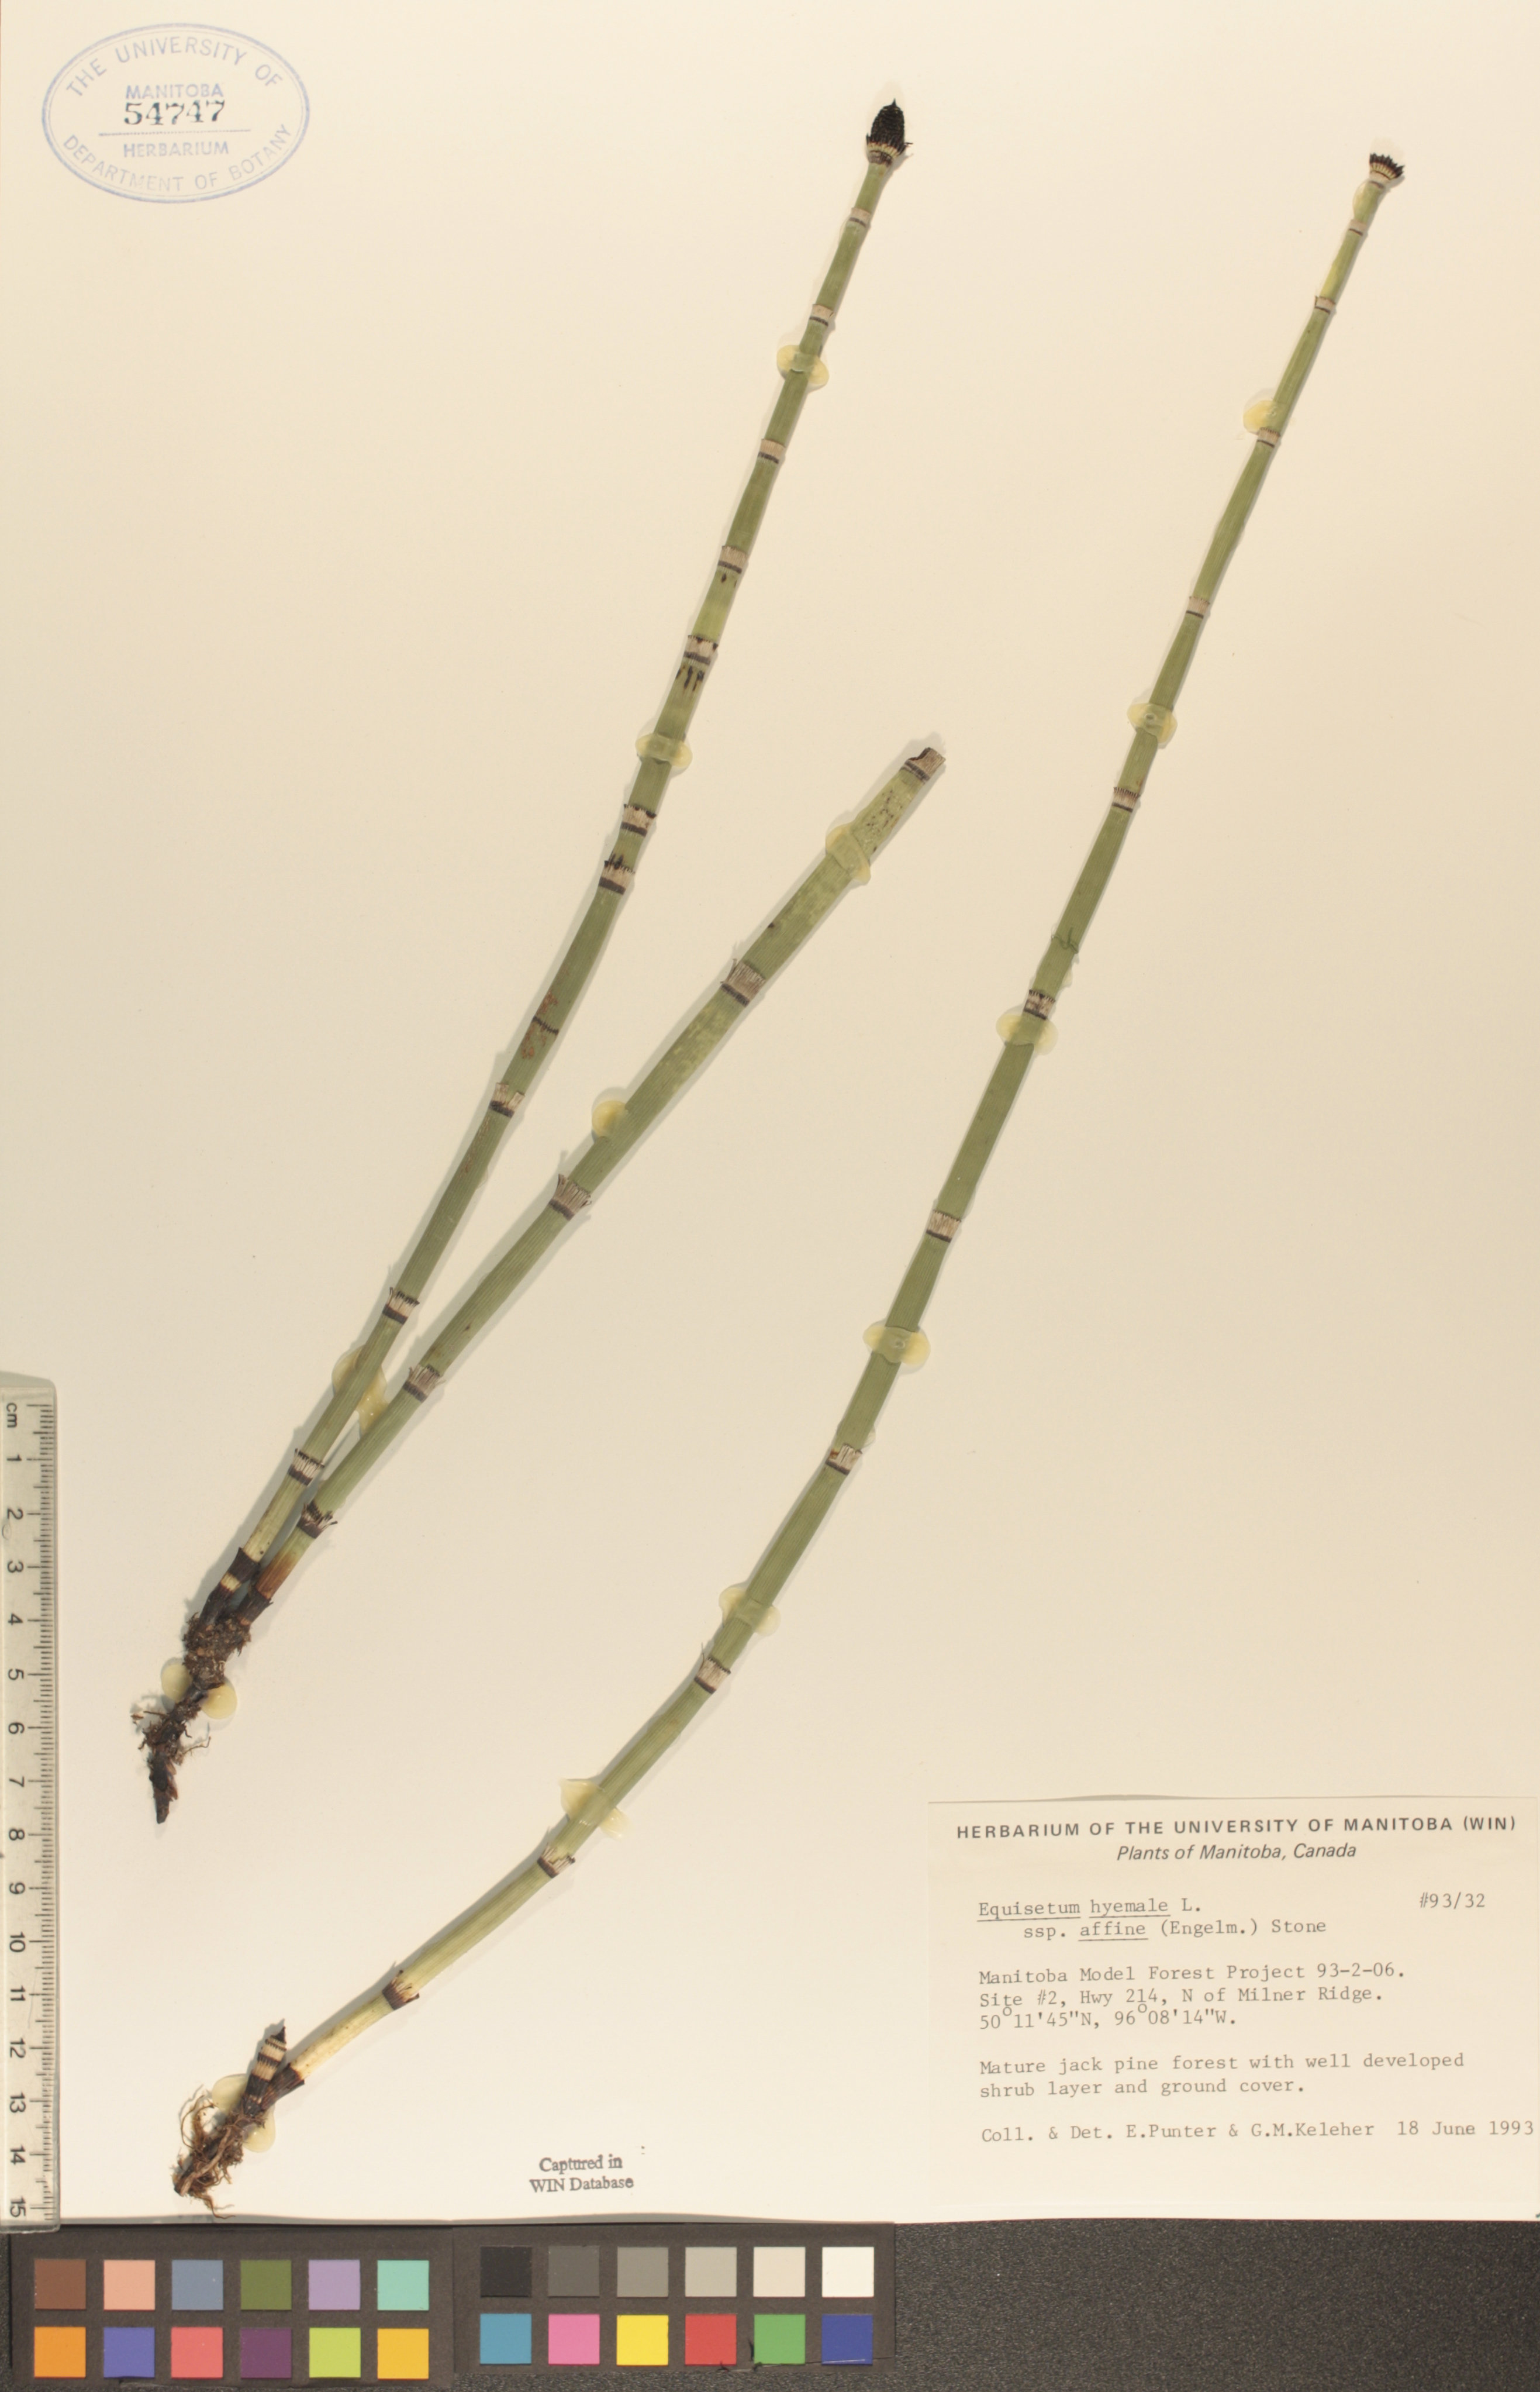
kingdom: Plantae
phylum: Tracheophyta
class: Polypodiopsida
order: Equisetales
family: Equisetaceae
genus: Equisetum
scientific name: Equisetum praealtum
